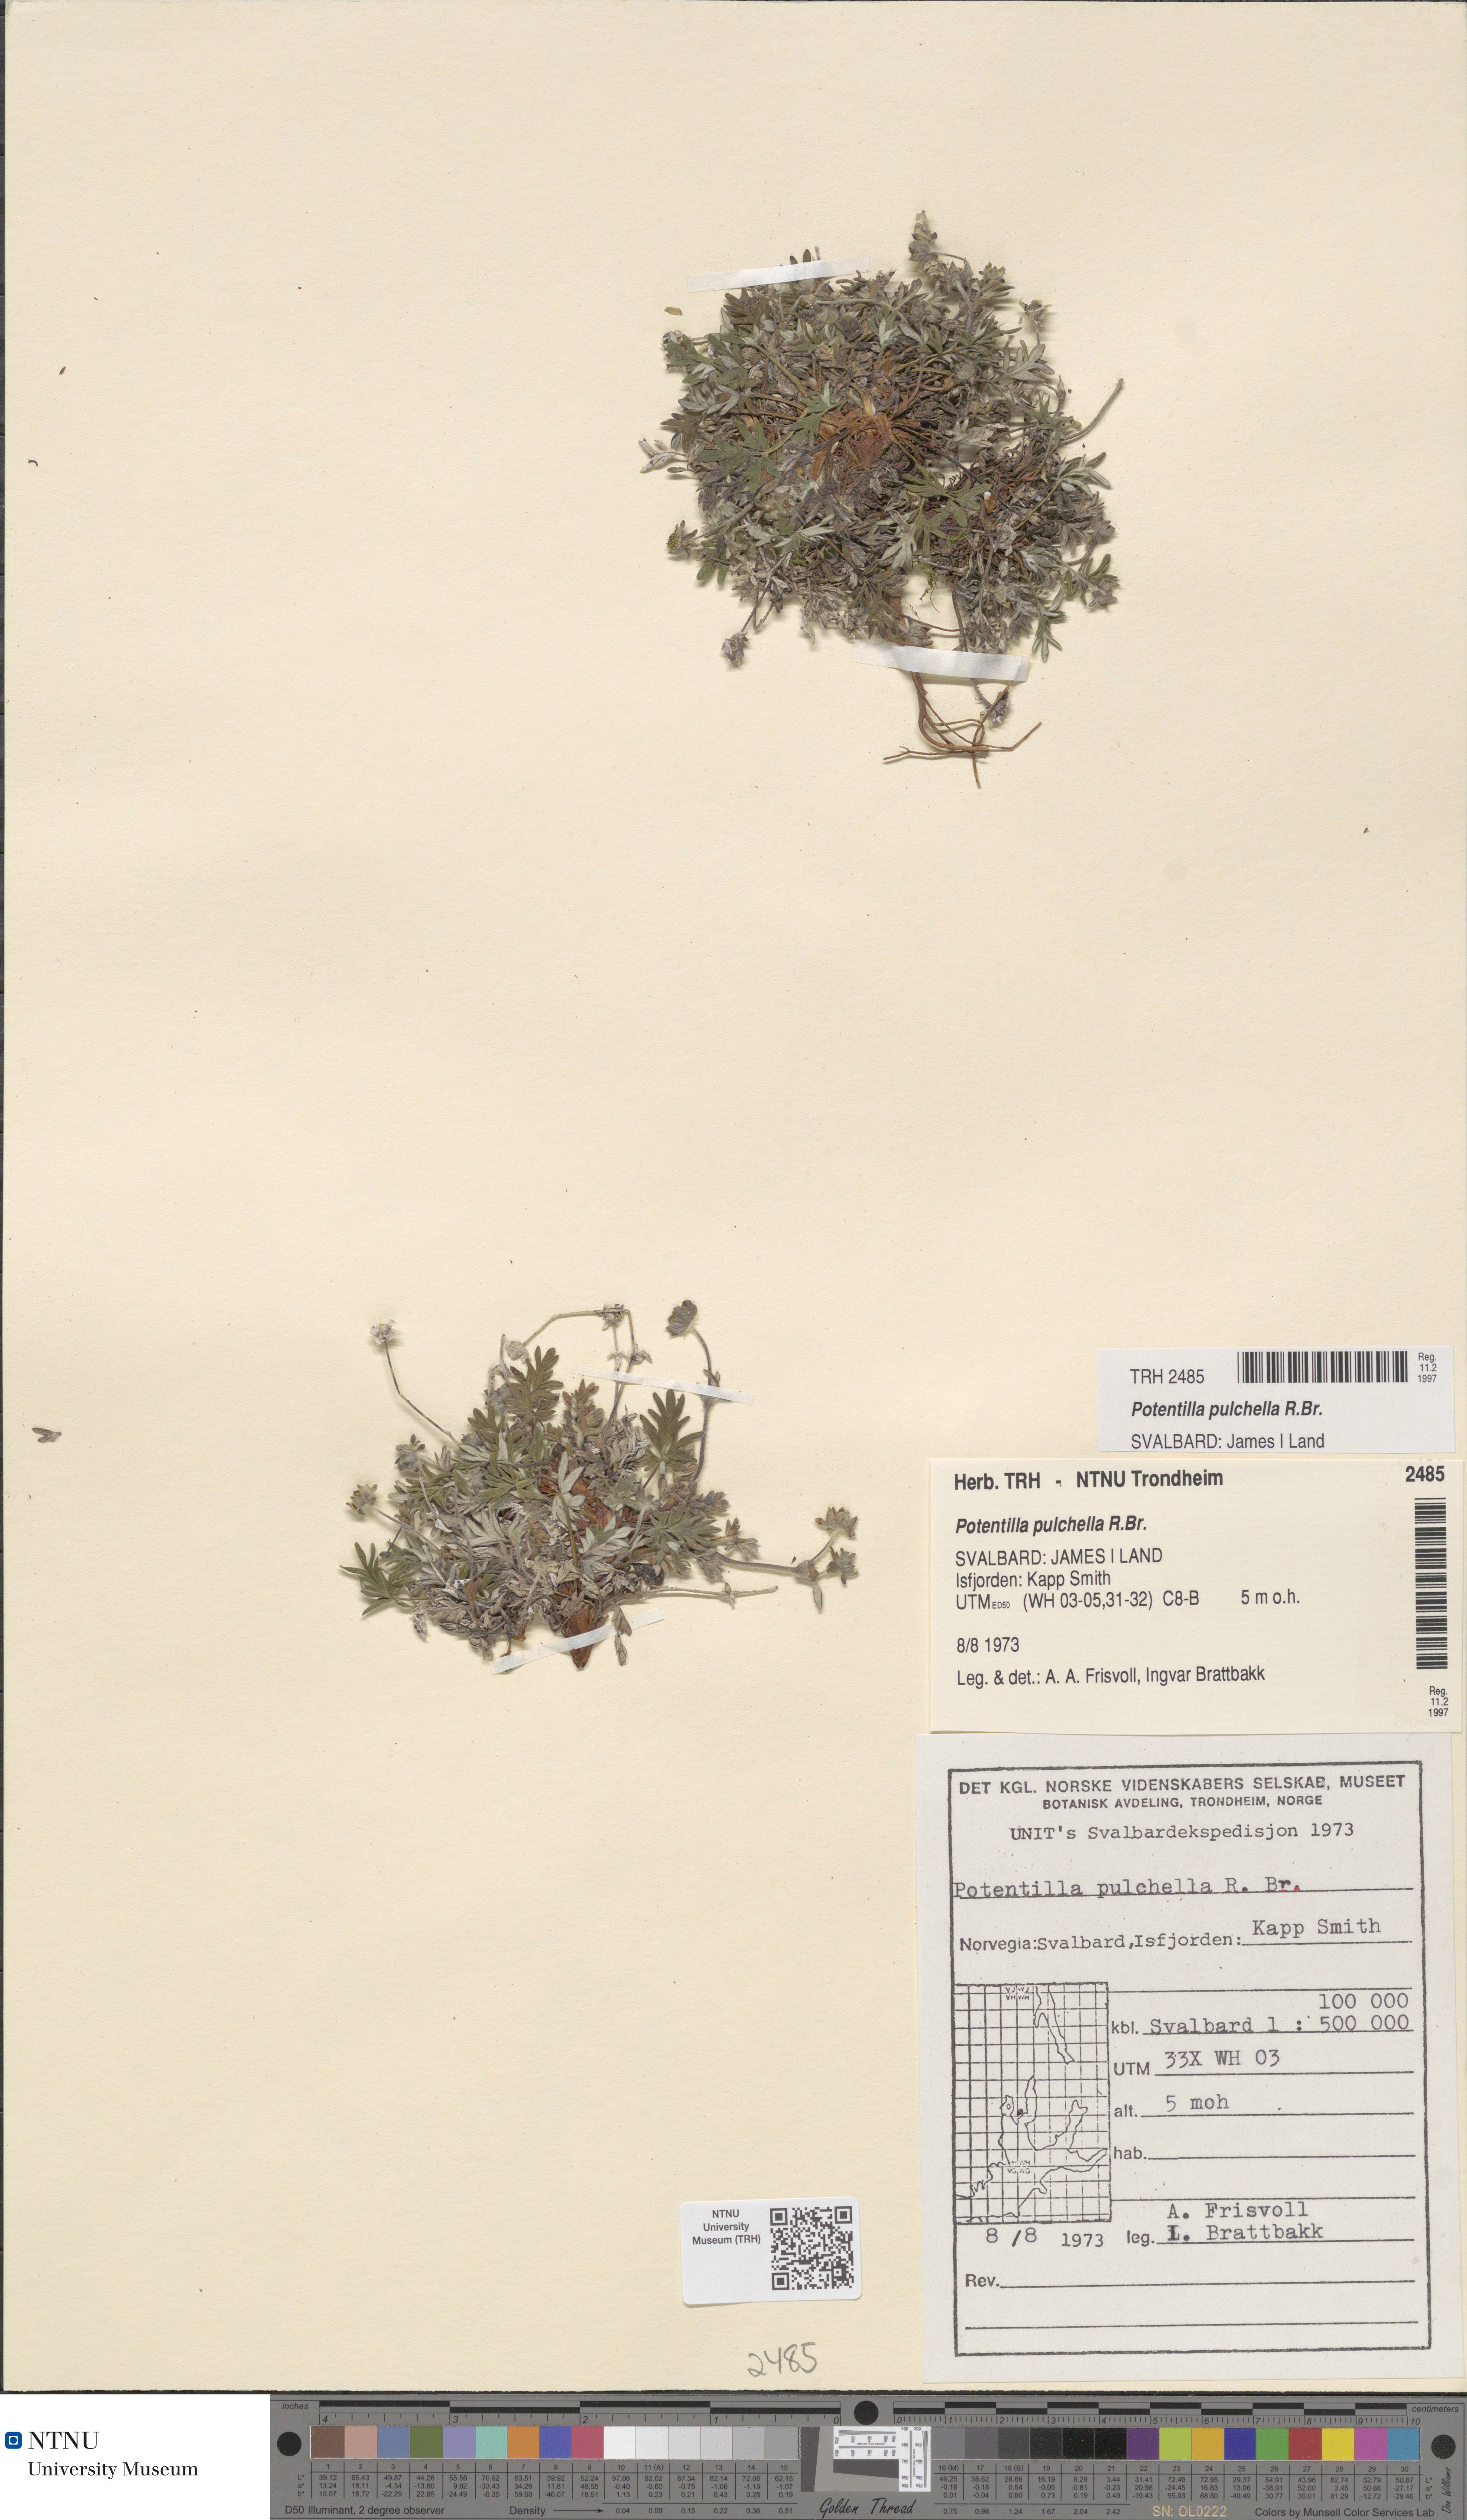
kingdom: Plantae
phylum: Tracheophyta
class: Magnoliopsida
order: Rosales
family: Rosaceae
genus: Potentilla
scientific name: Potentilla pulchella
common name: Pretty cinquefoil
